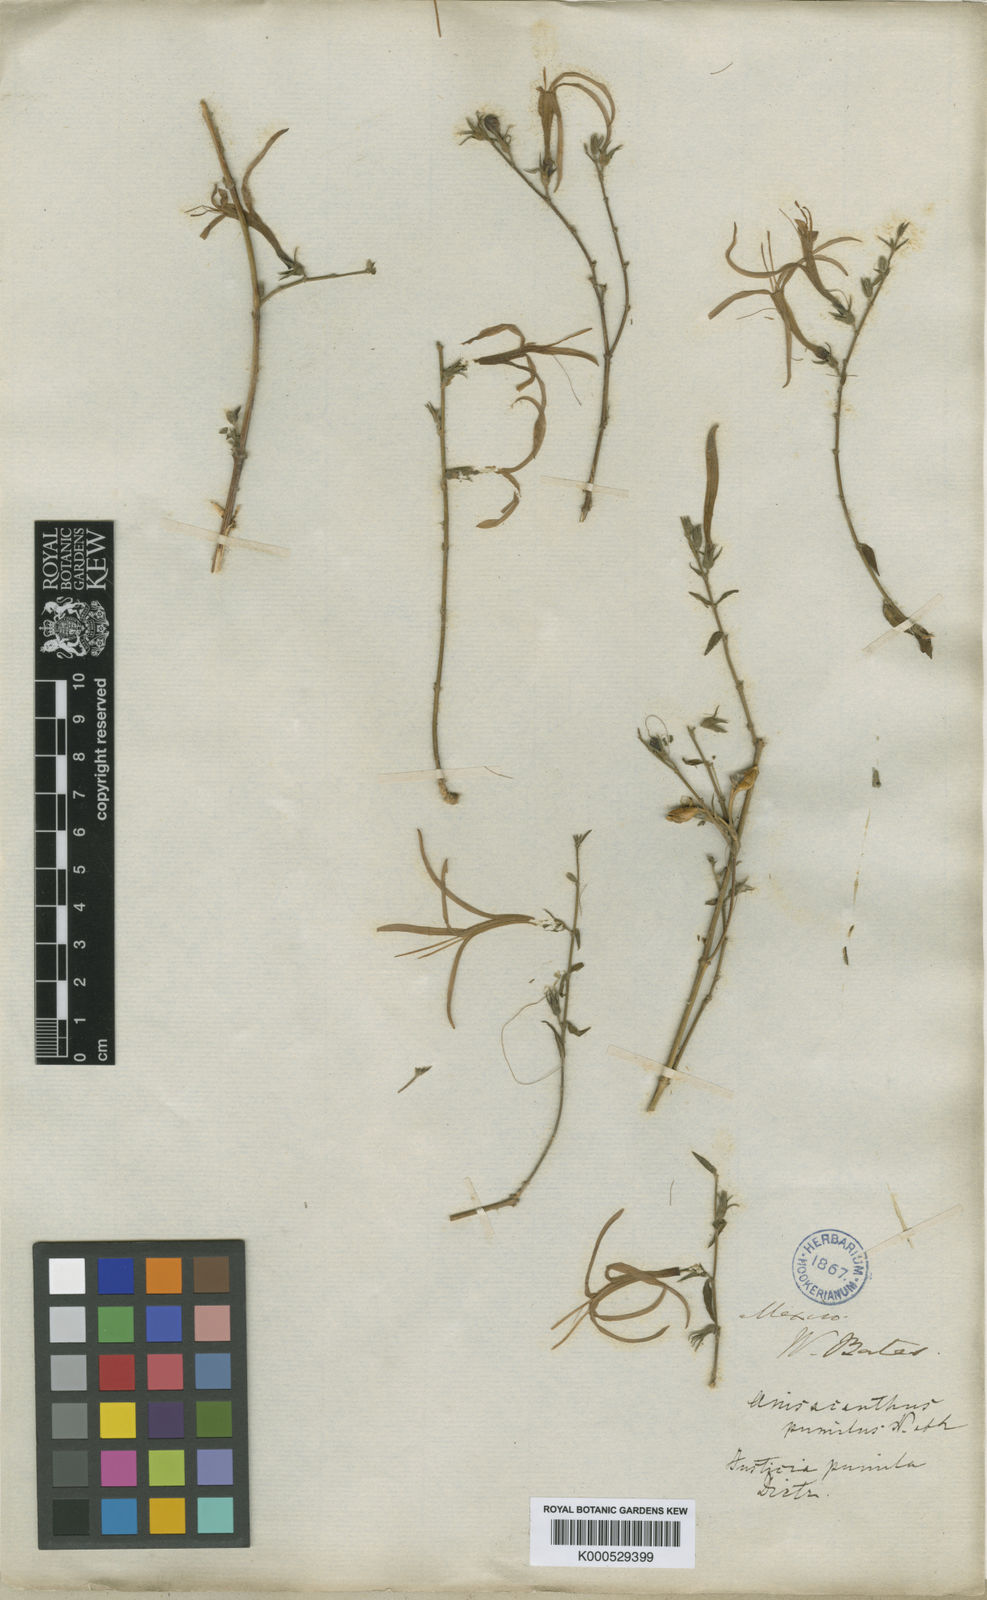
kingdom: Plantae
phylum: Tracheophyta
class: Magnoliopsida
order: Lamiales
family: Acanthaceae
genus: Anisacanthus
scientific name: Anisacanthus pumilus
